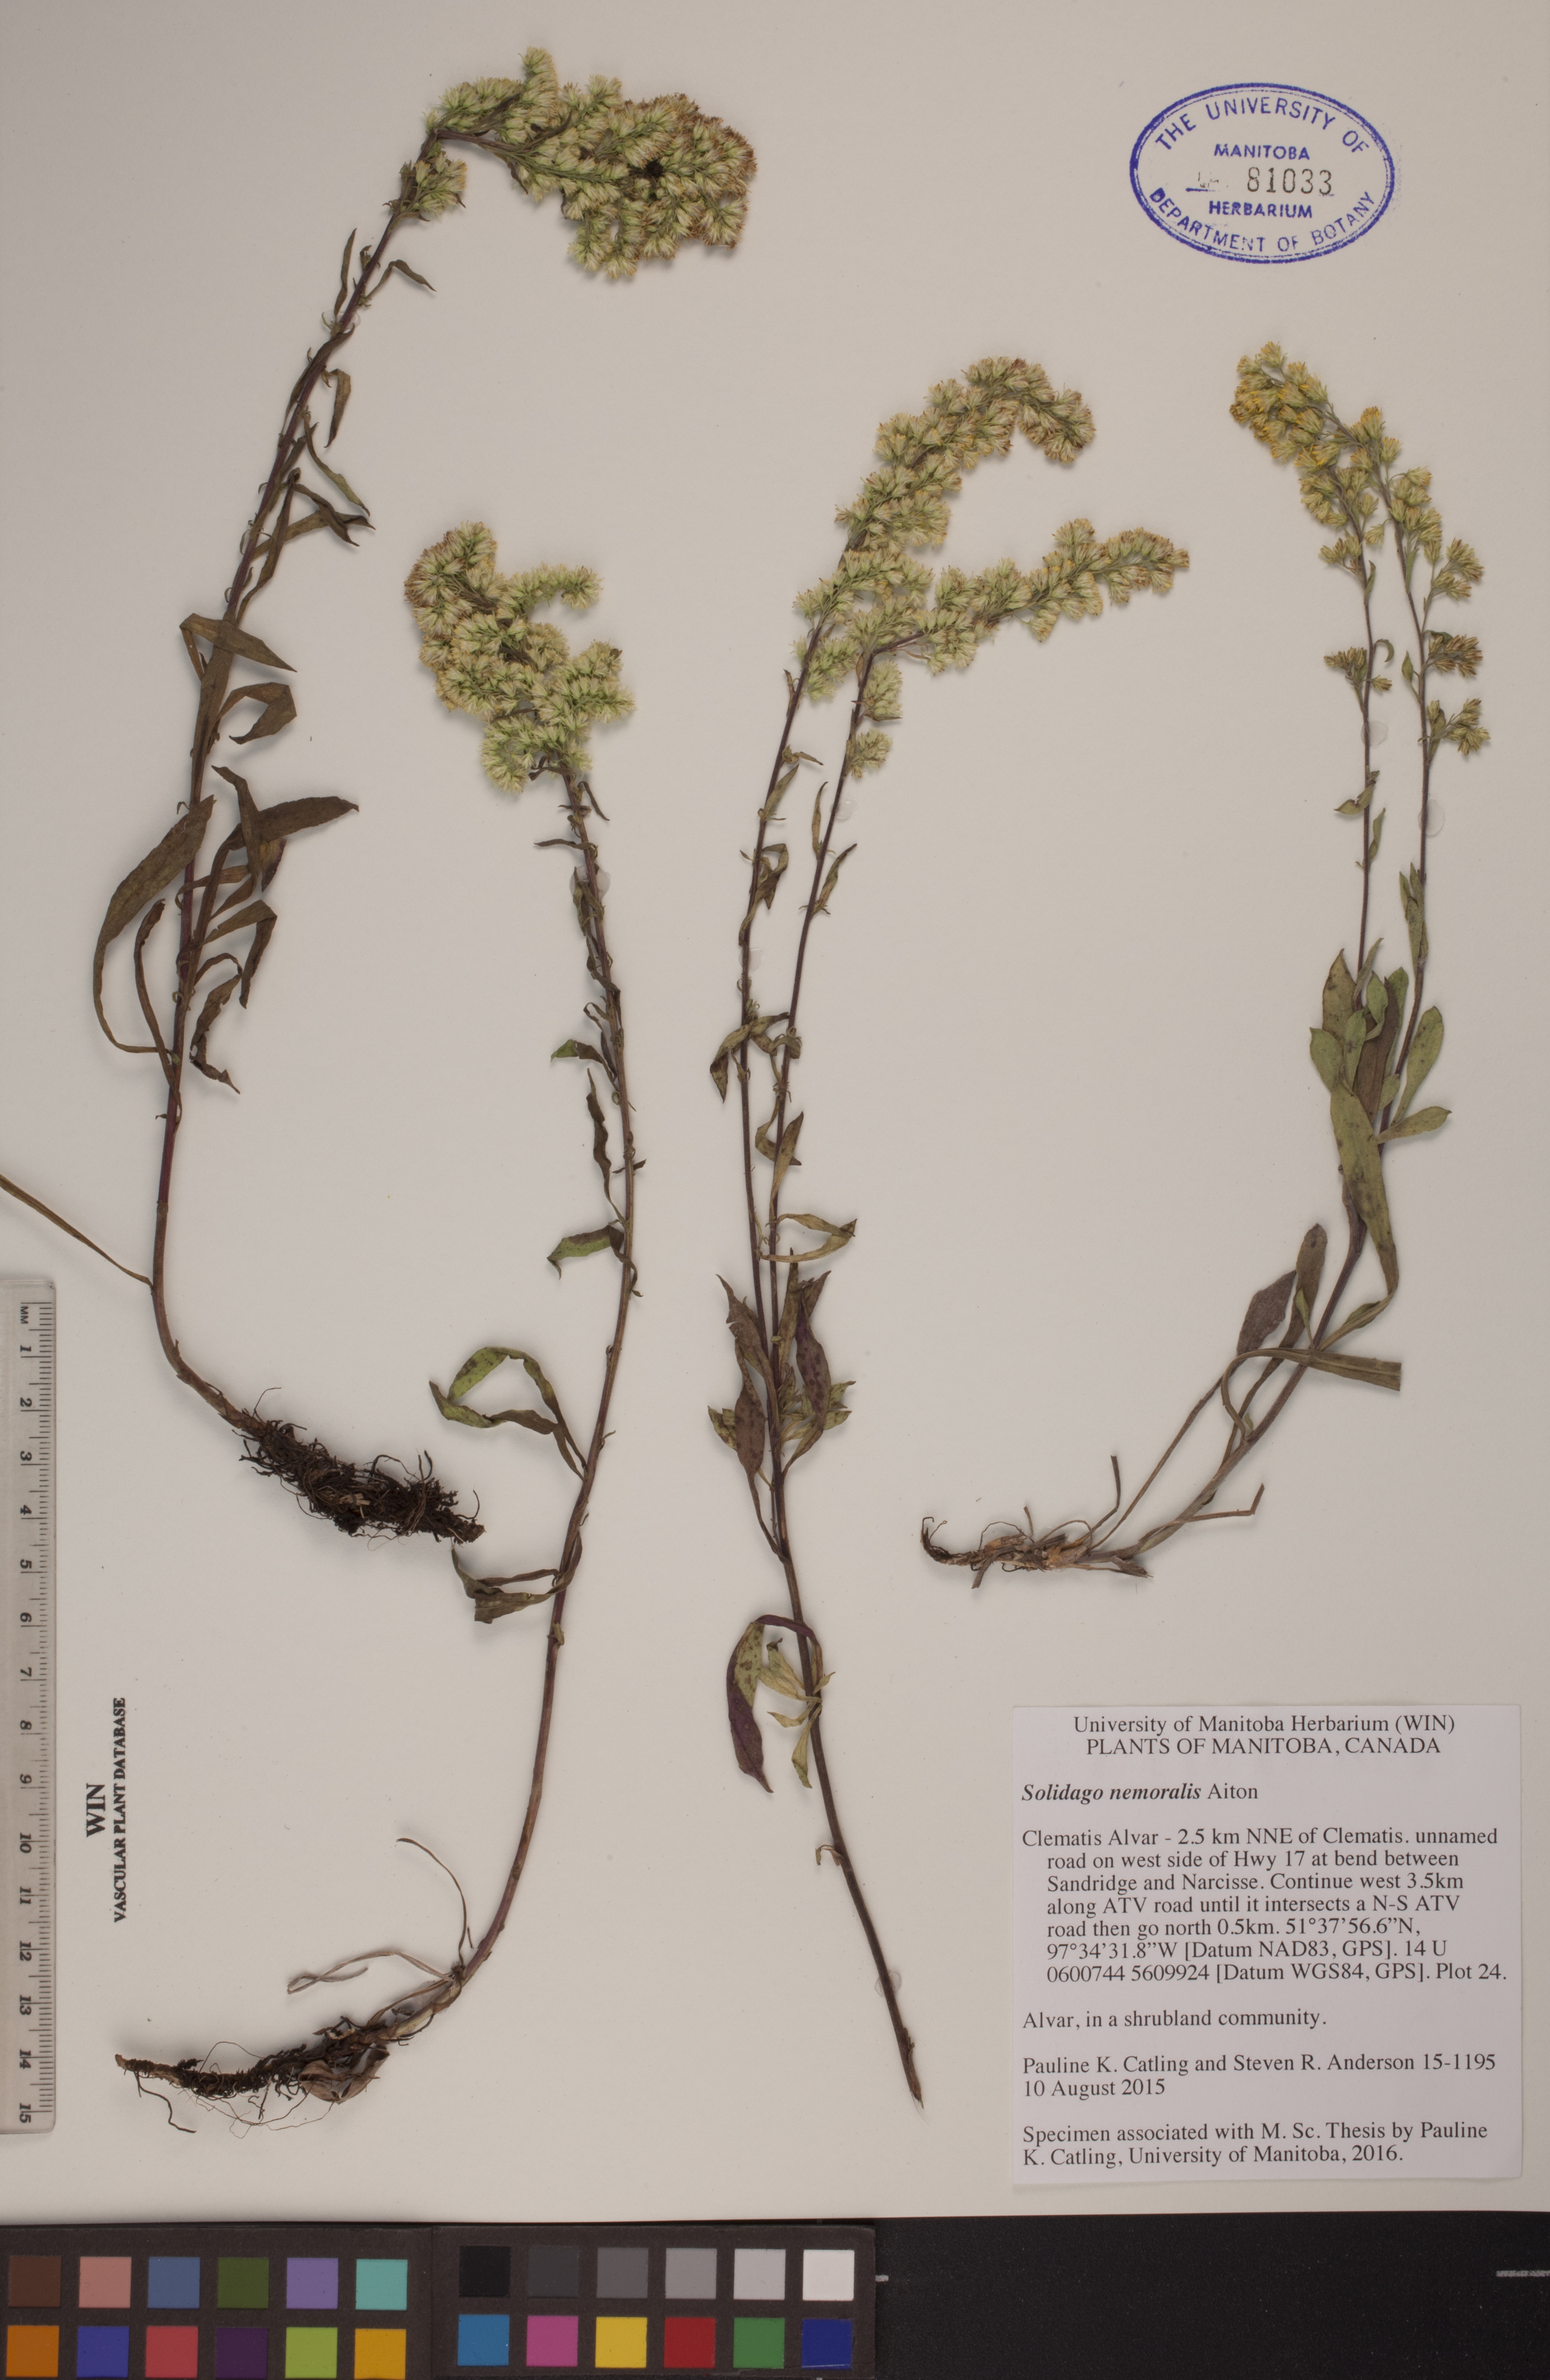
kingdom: Plantae
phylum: Tracheophyta
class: Magnoliopsida
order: Asterales
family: Asteraceae
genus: Solidago
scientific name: Solidago nemoralis
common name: Grey goldenrod
